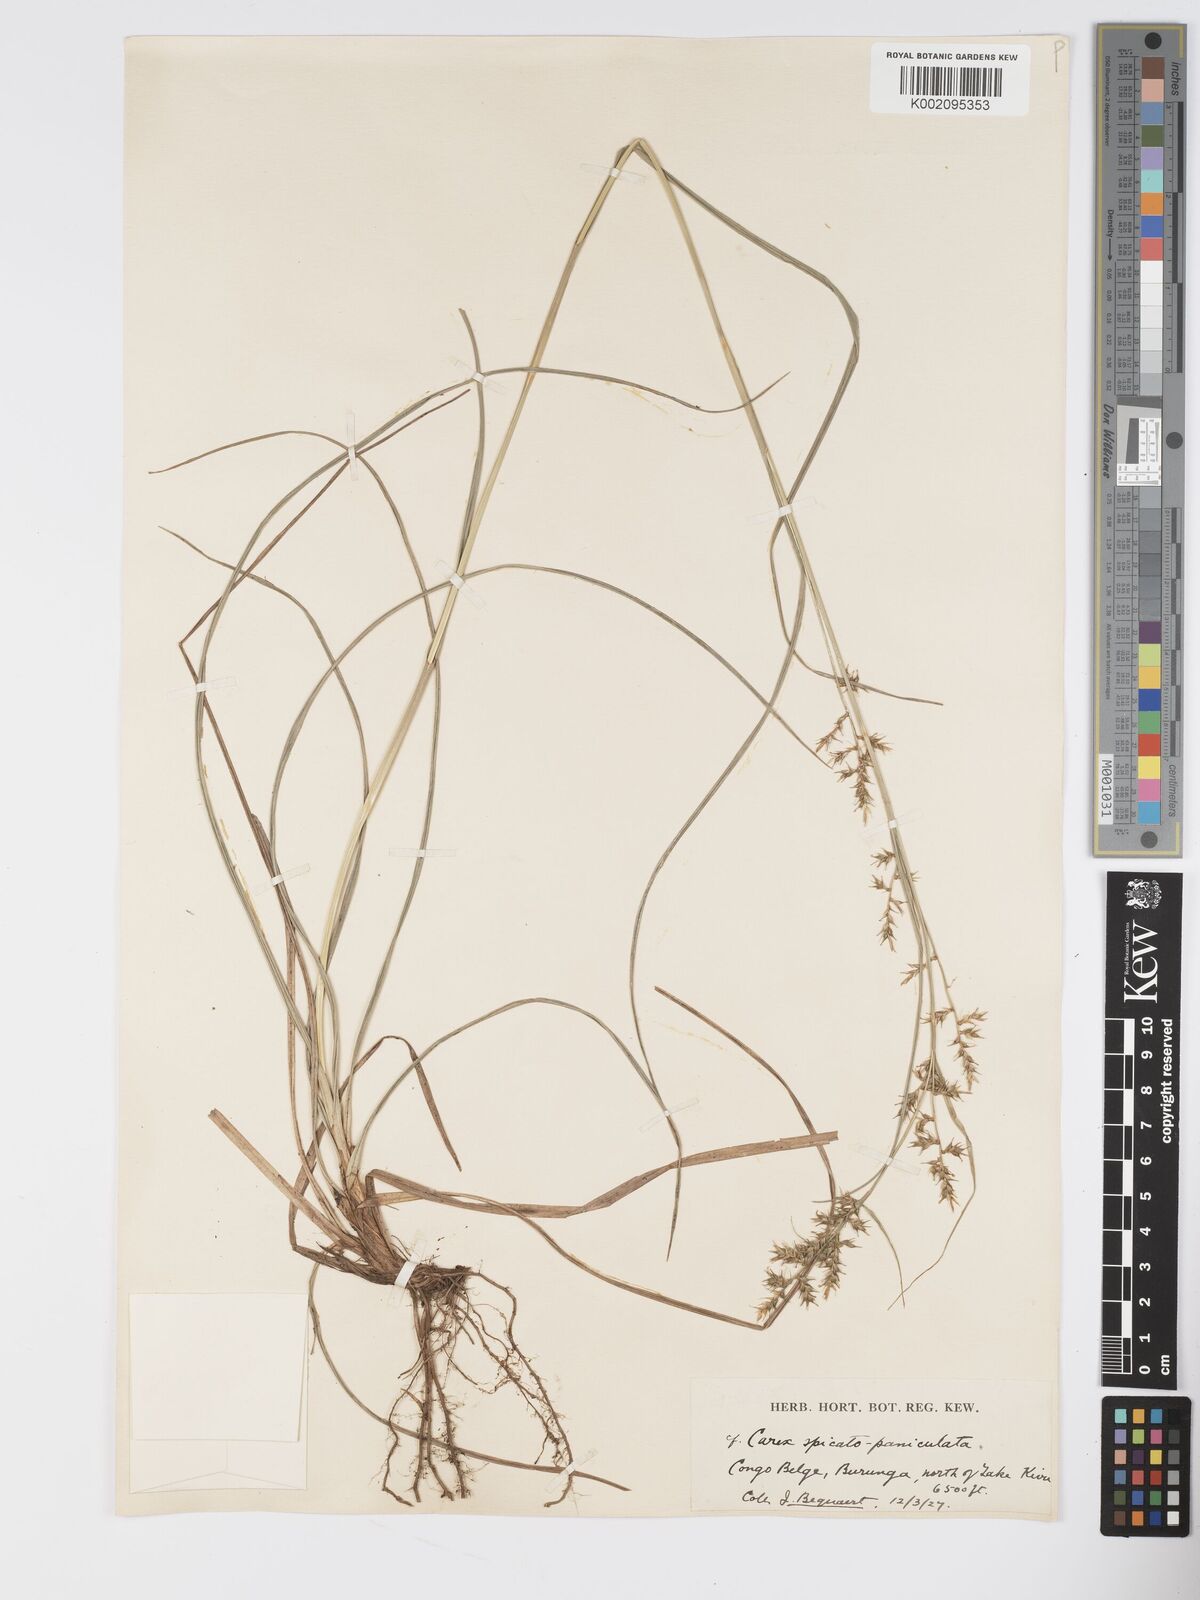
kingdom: Plantae
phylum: Tracheophyta
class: Liliopsida
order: Poales
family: Cyperaceae
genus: Carex
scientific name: Carex chlorosaccus
